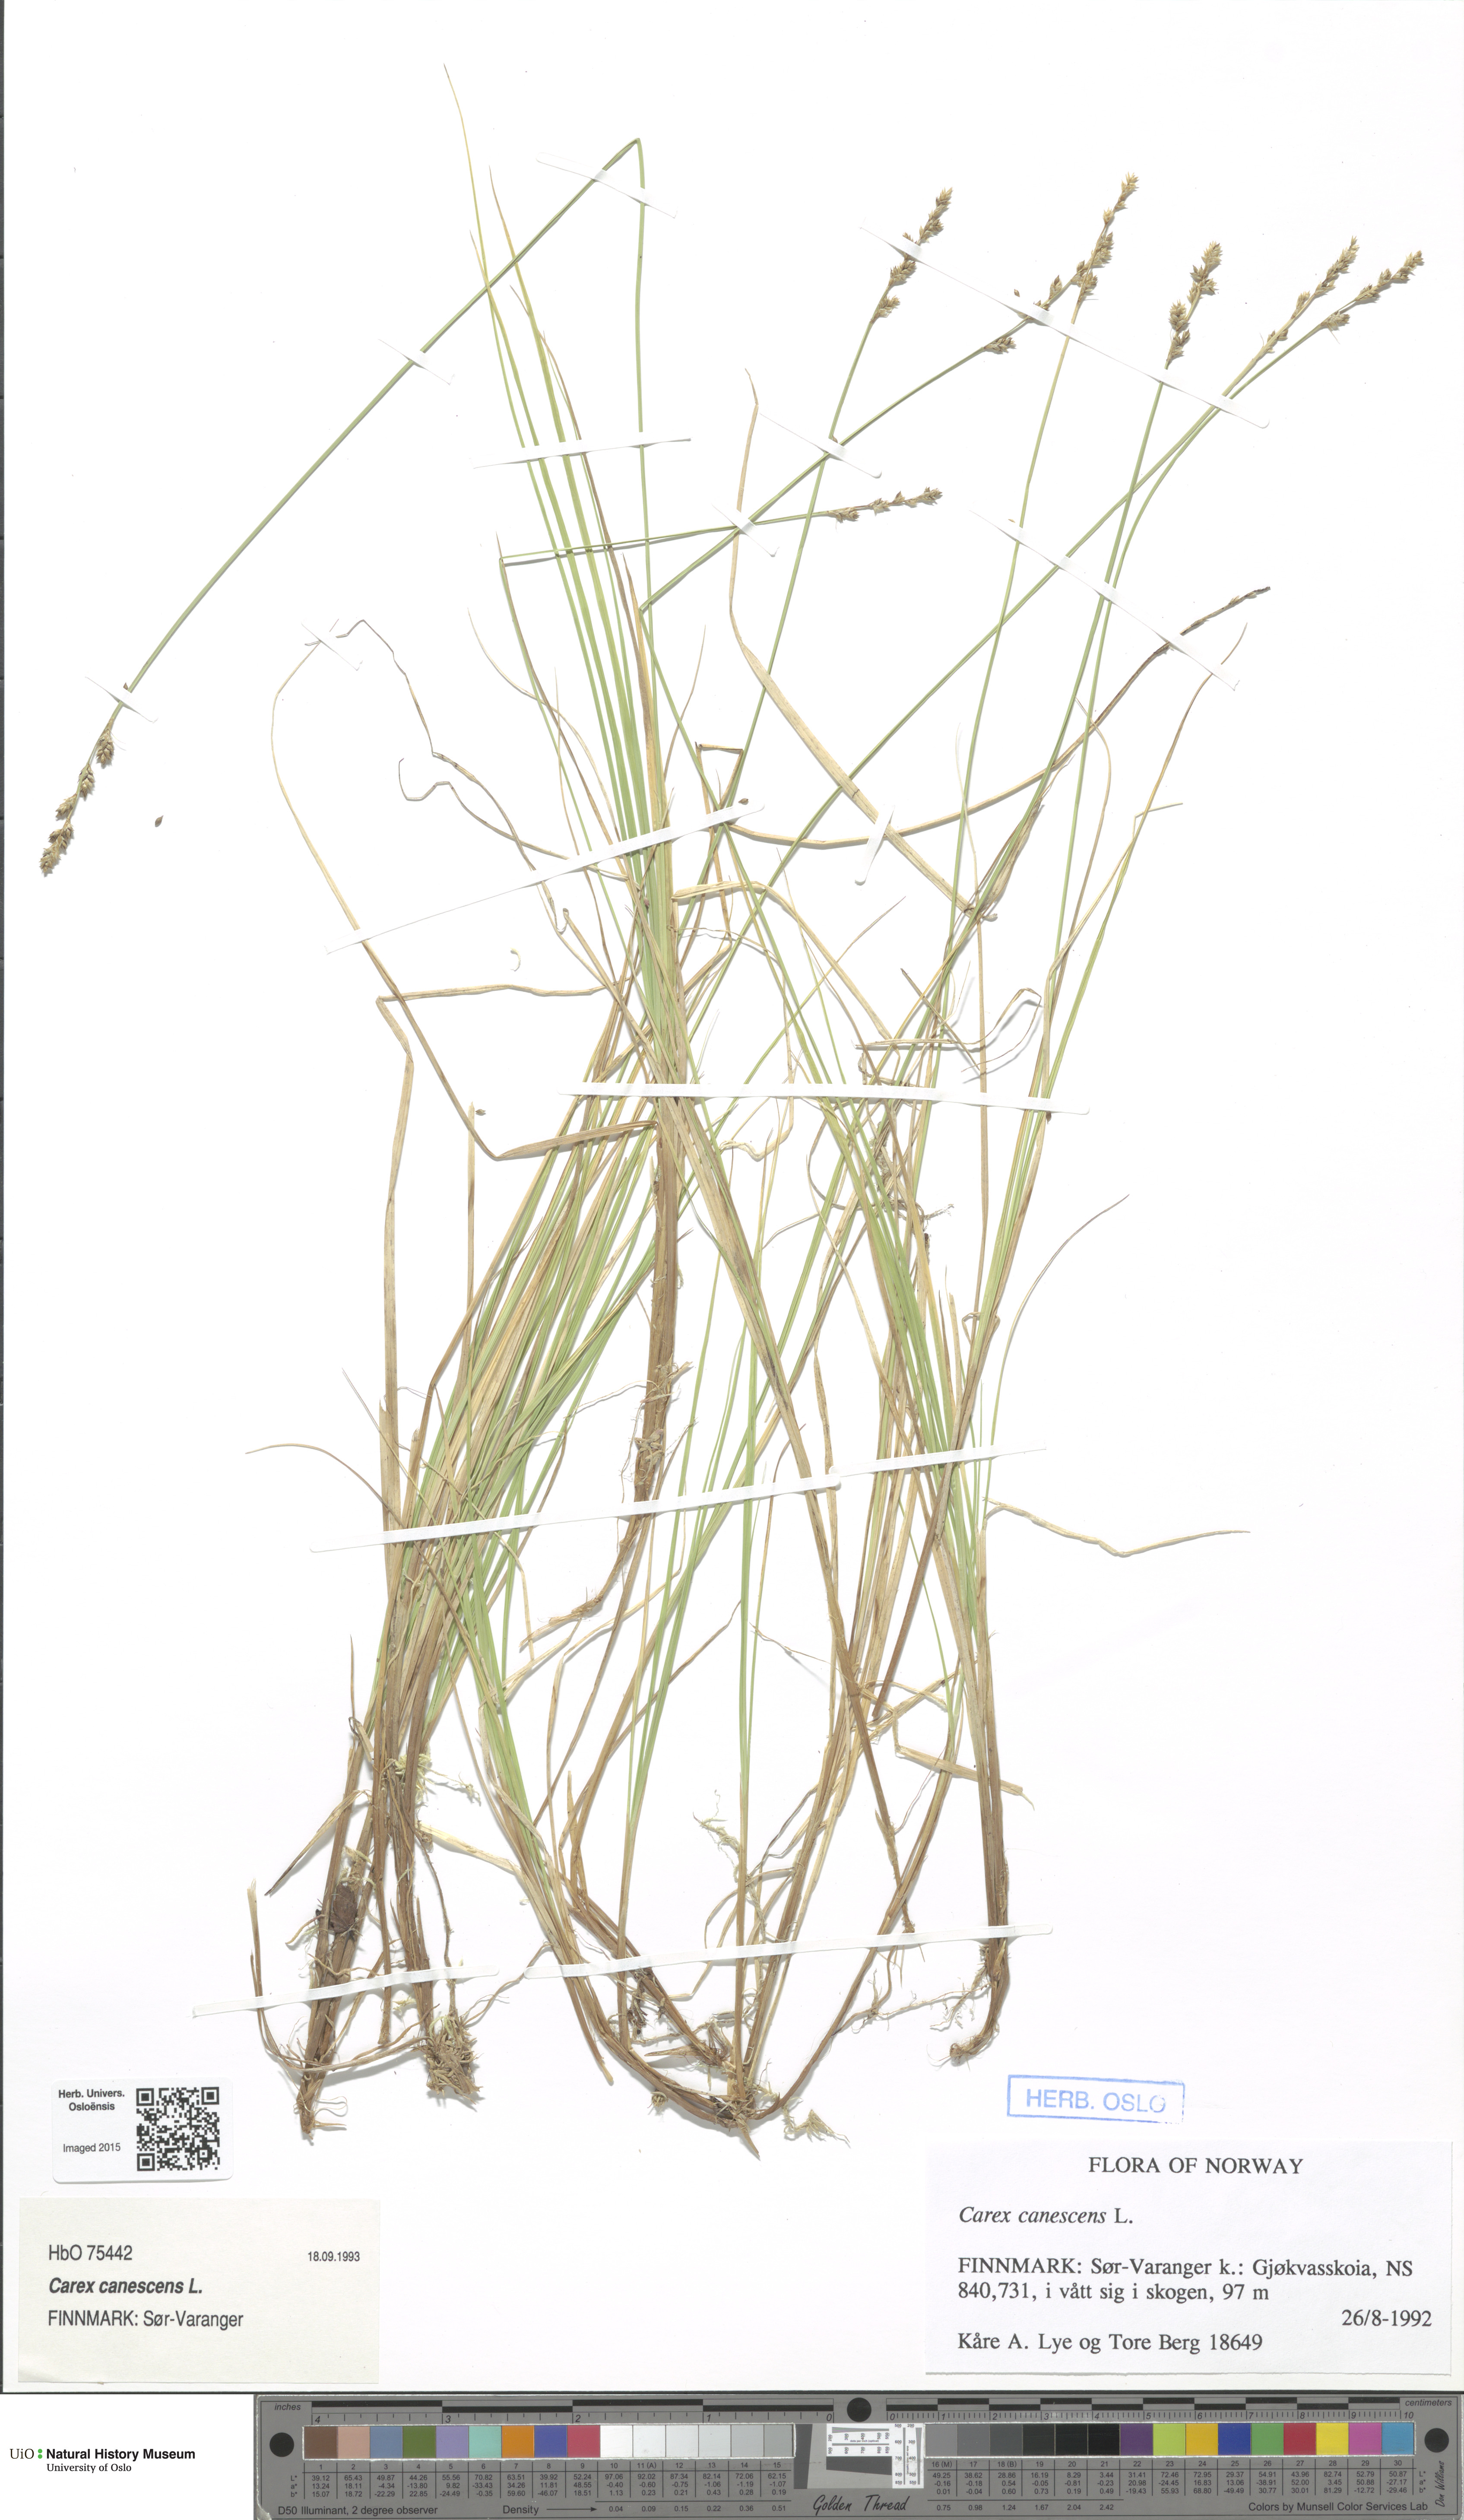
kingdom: Plantae
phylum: Tracheophyta
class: Liliopsida
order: Poales
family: Cyperaceae
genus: Carex
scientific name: Carex canescens
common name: White sedge
